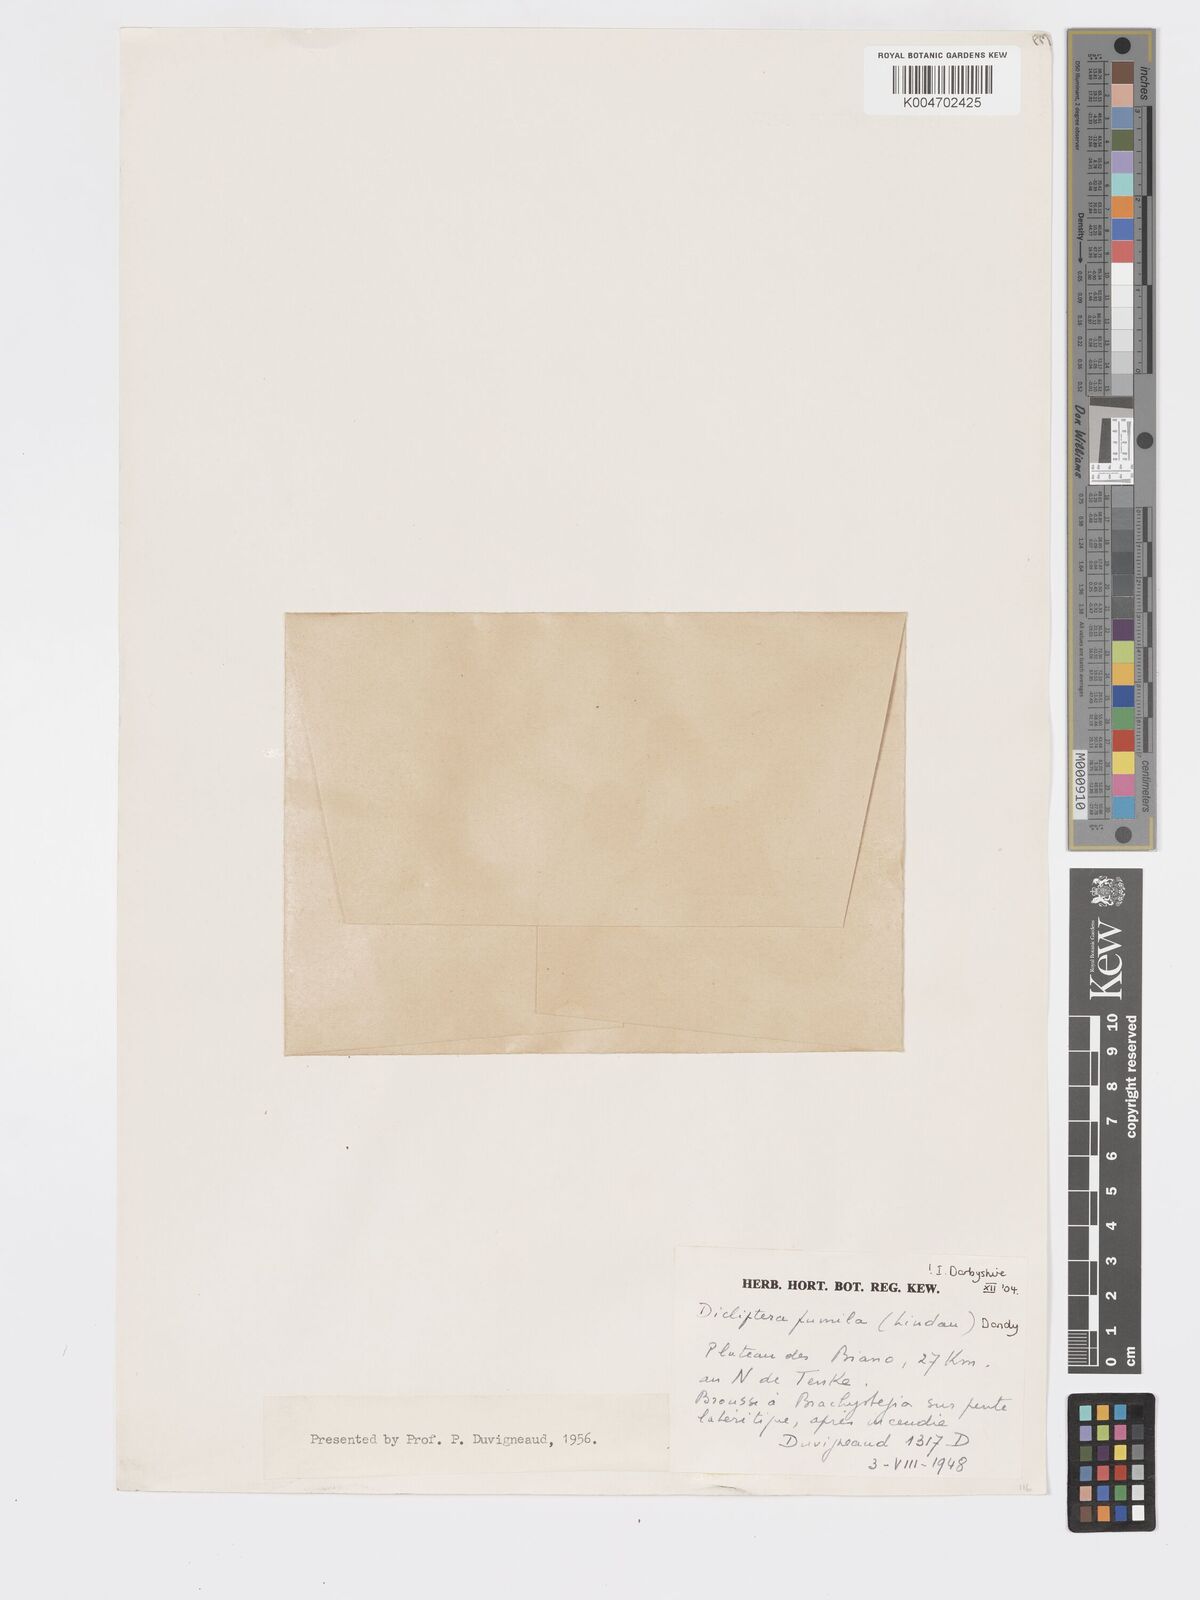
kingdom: Plantae
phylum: Tracheophyta
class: Magnoliopsida
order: Lamiales
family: Acanthaceae
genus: Dicliptera
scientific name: Dicliptera pumila
